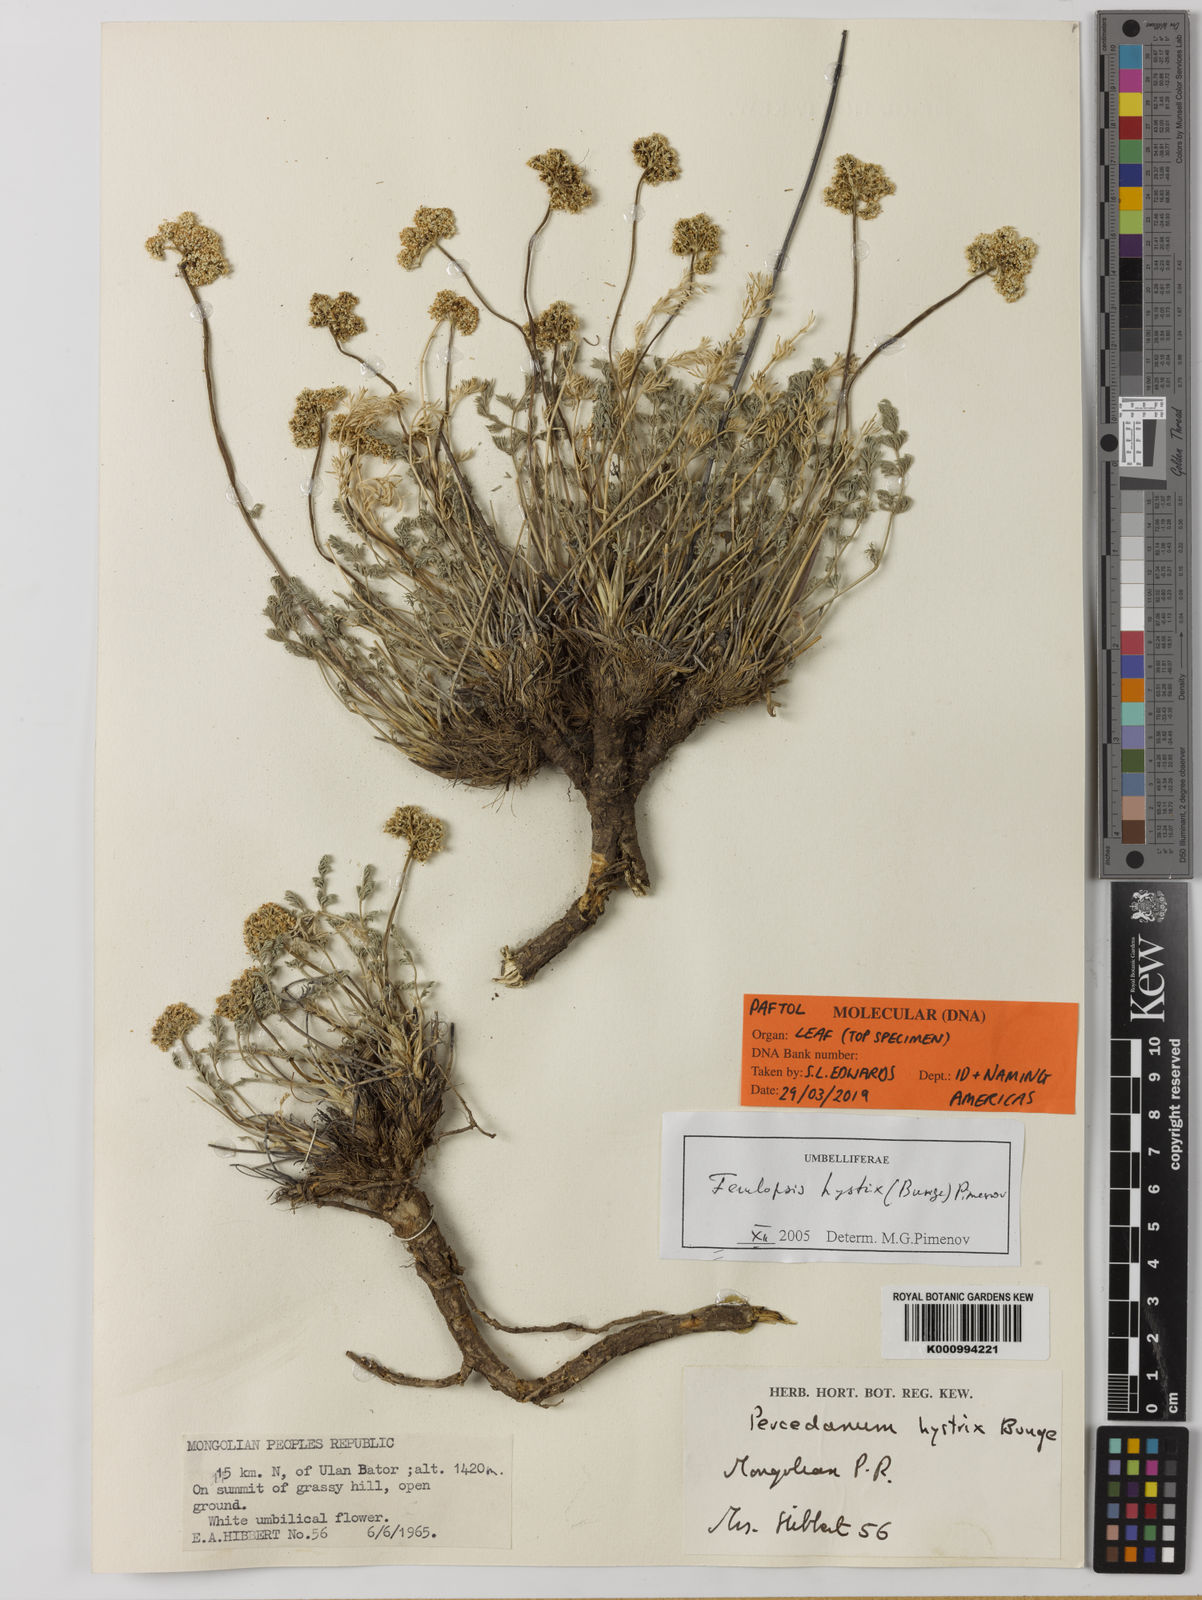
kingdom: Plantae
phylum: Tracheophyta
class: Magnoliopsida
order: Apiales
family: Apiaceae
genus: Ferulopsis
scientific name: Ferulopsis hystrix
